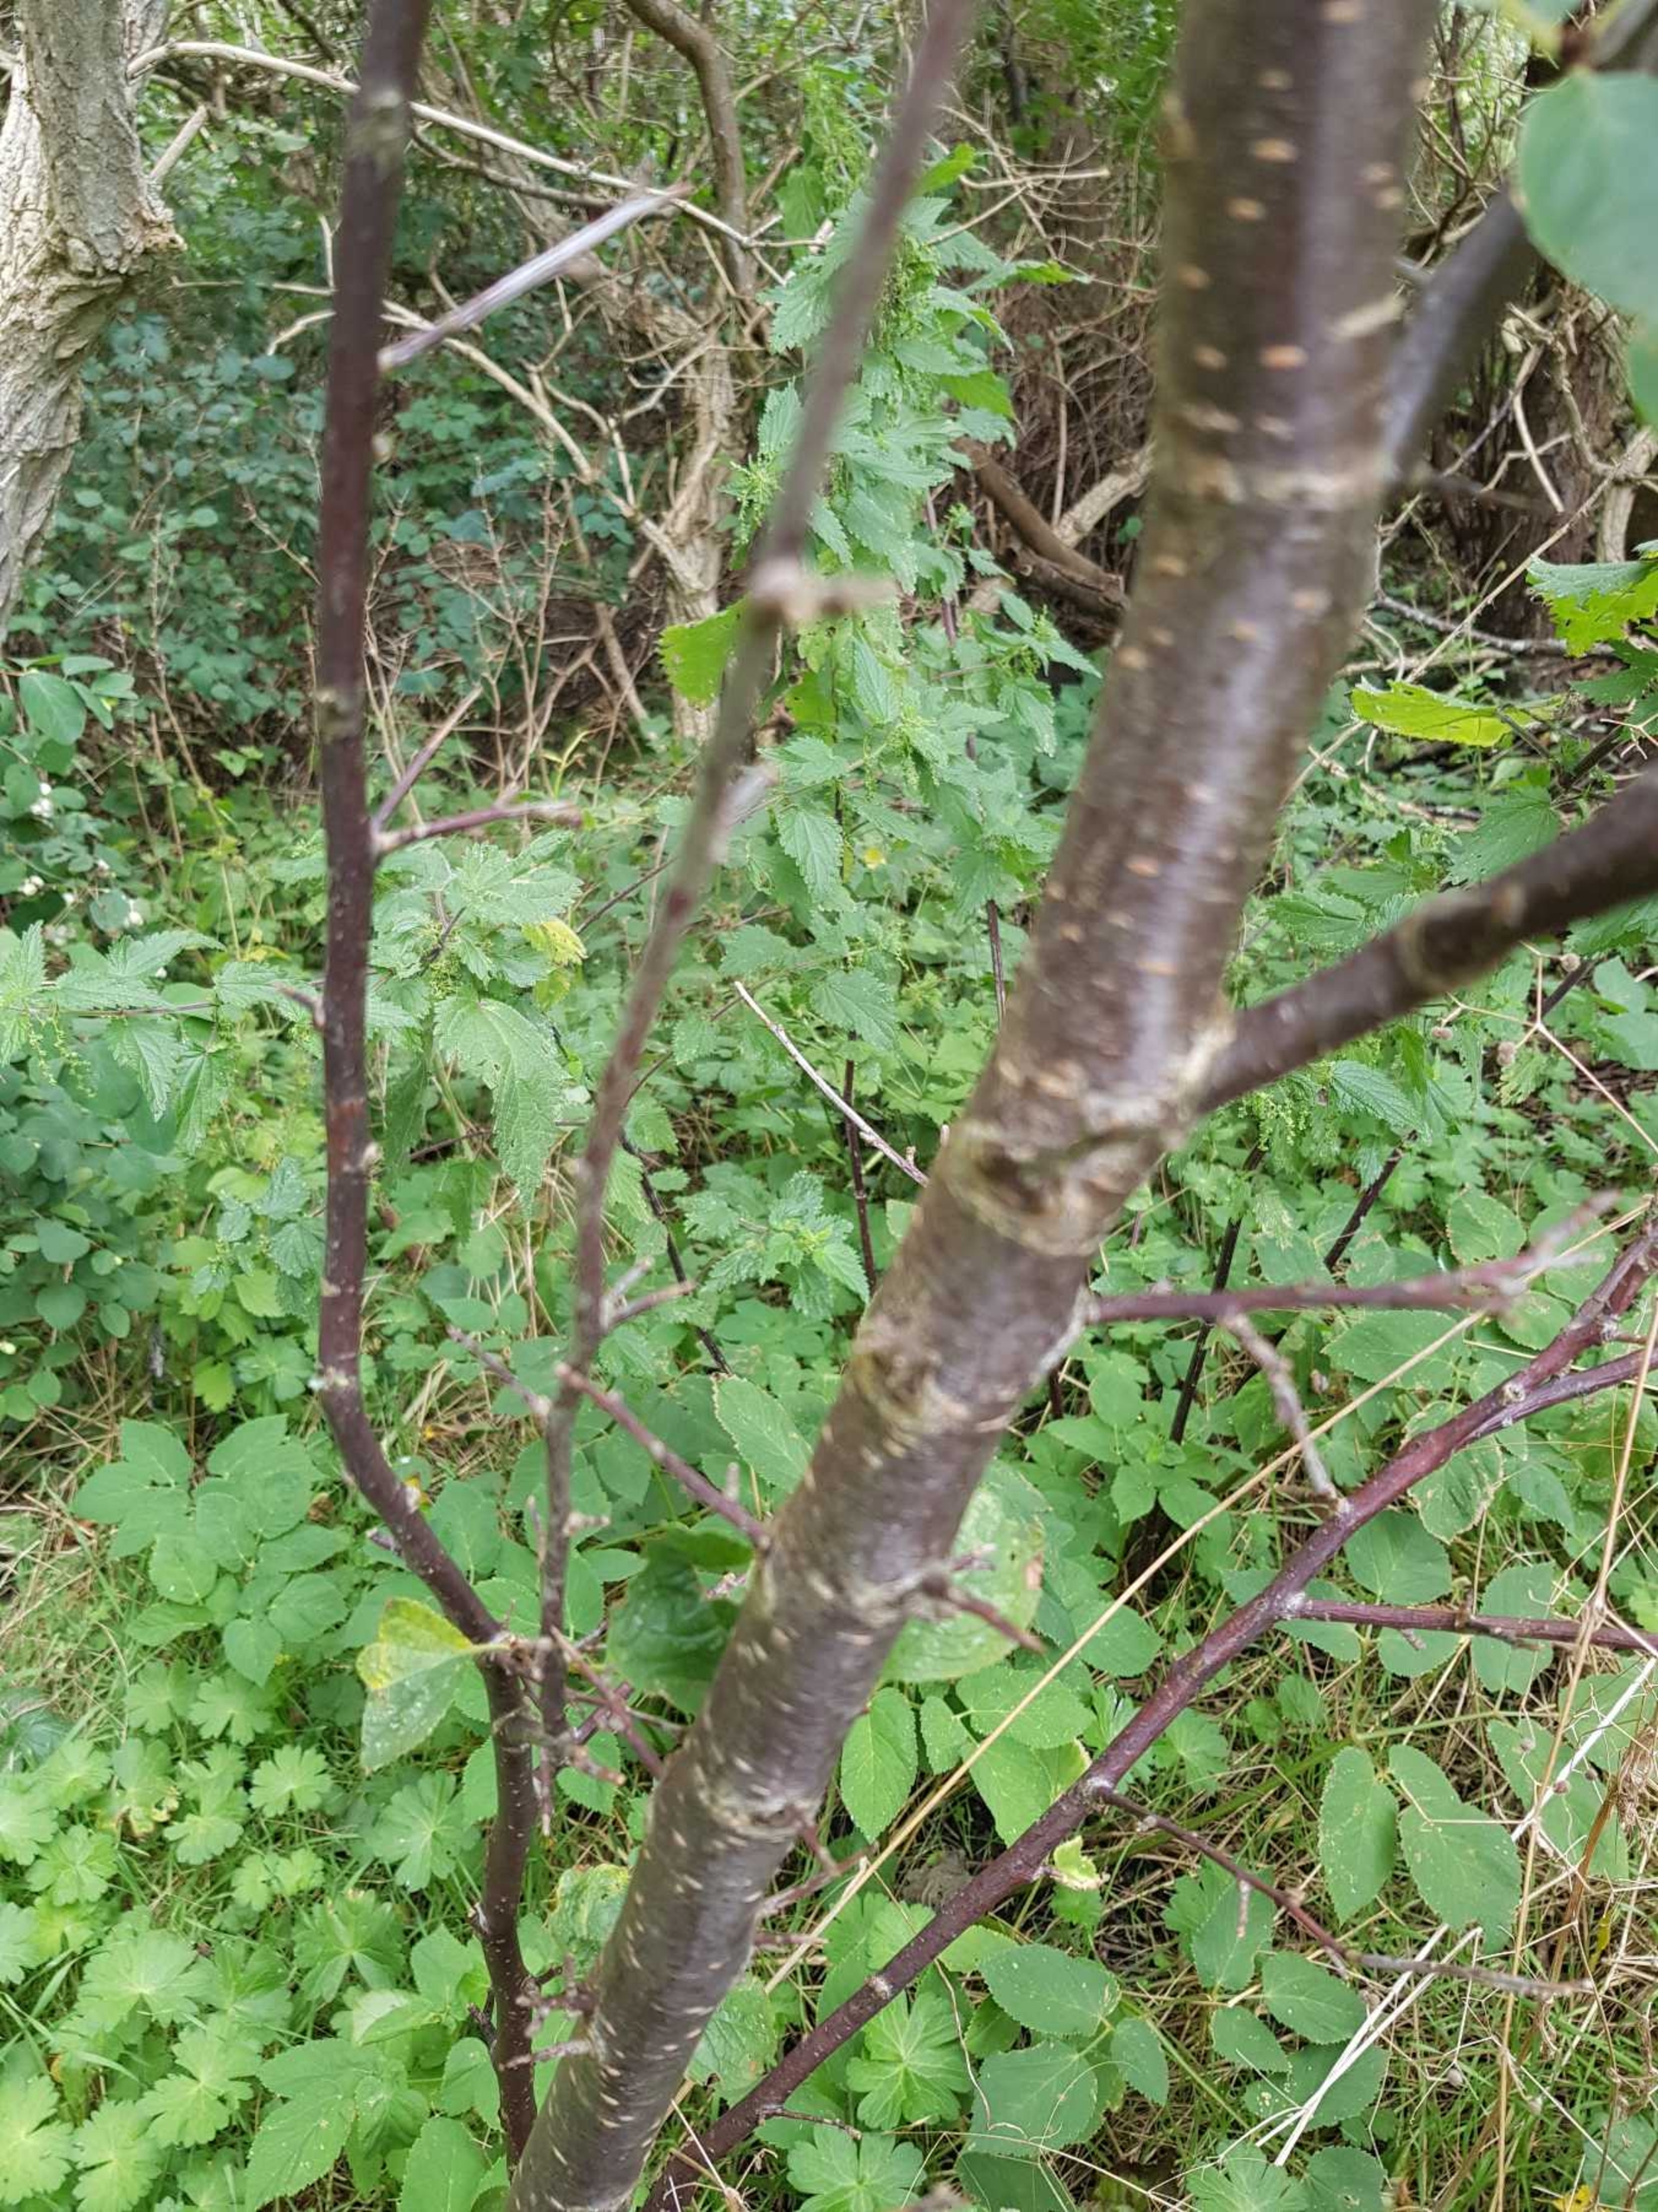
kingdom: Plantae
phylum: Tracheophyta
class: Magnoliopsida
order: Rosales
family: Rosaceae
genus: Prunus
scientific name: Prunus domestica
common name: Kræge
